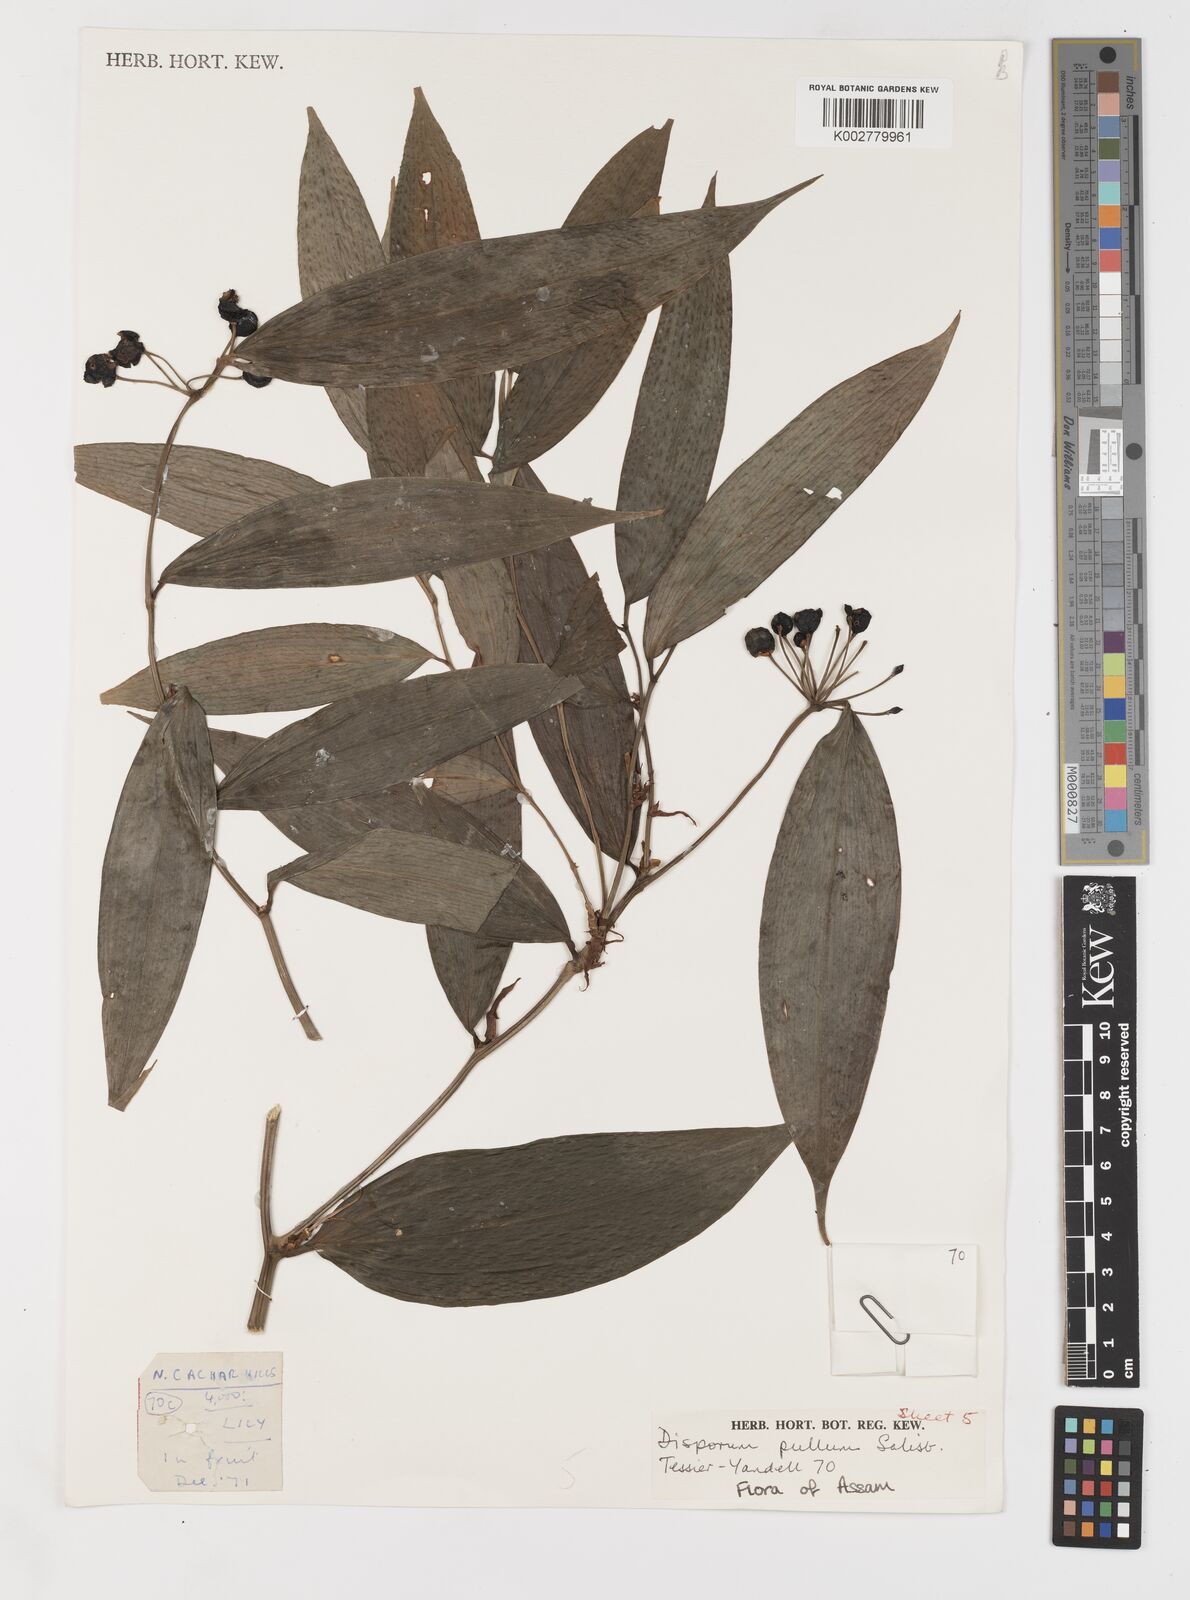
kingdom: Plantae
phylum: Tracheophyta
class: Liliopsida
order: Liliales
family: Colchicaceae
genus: Disporum
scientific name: Disporum cantoniense
